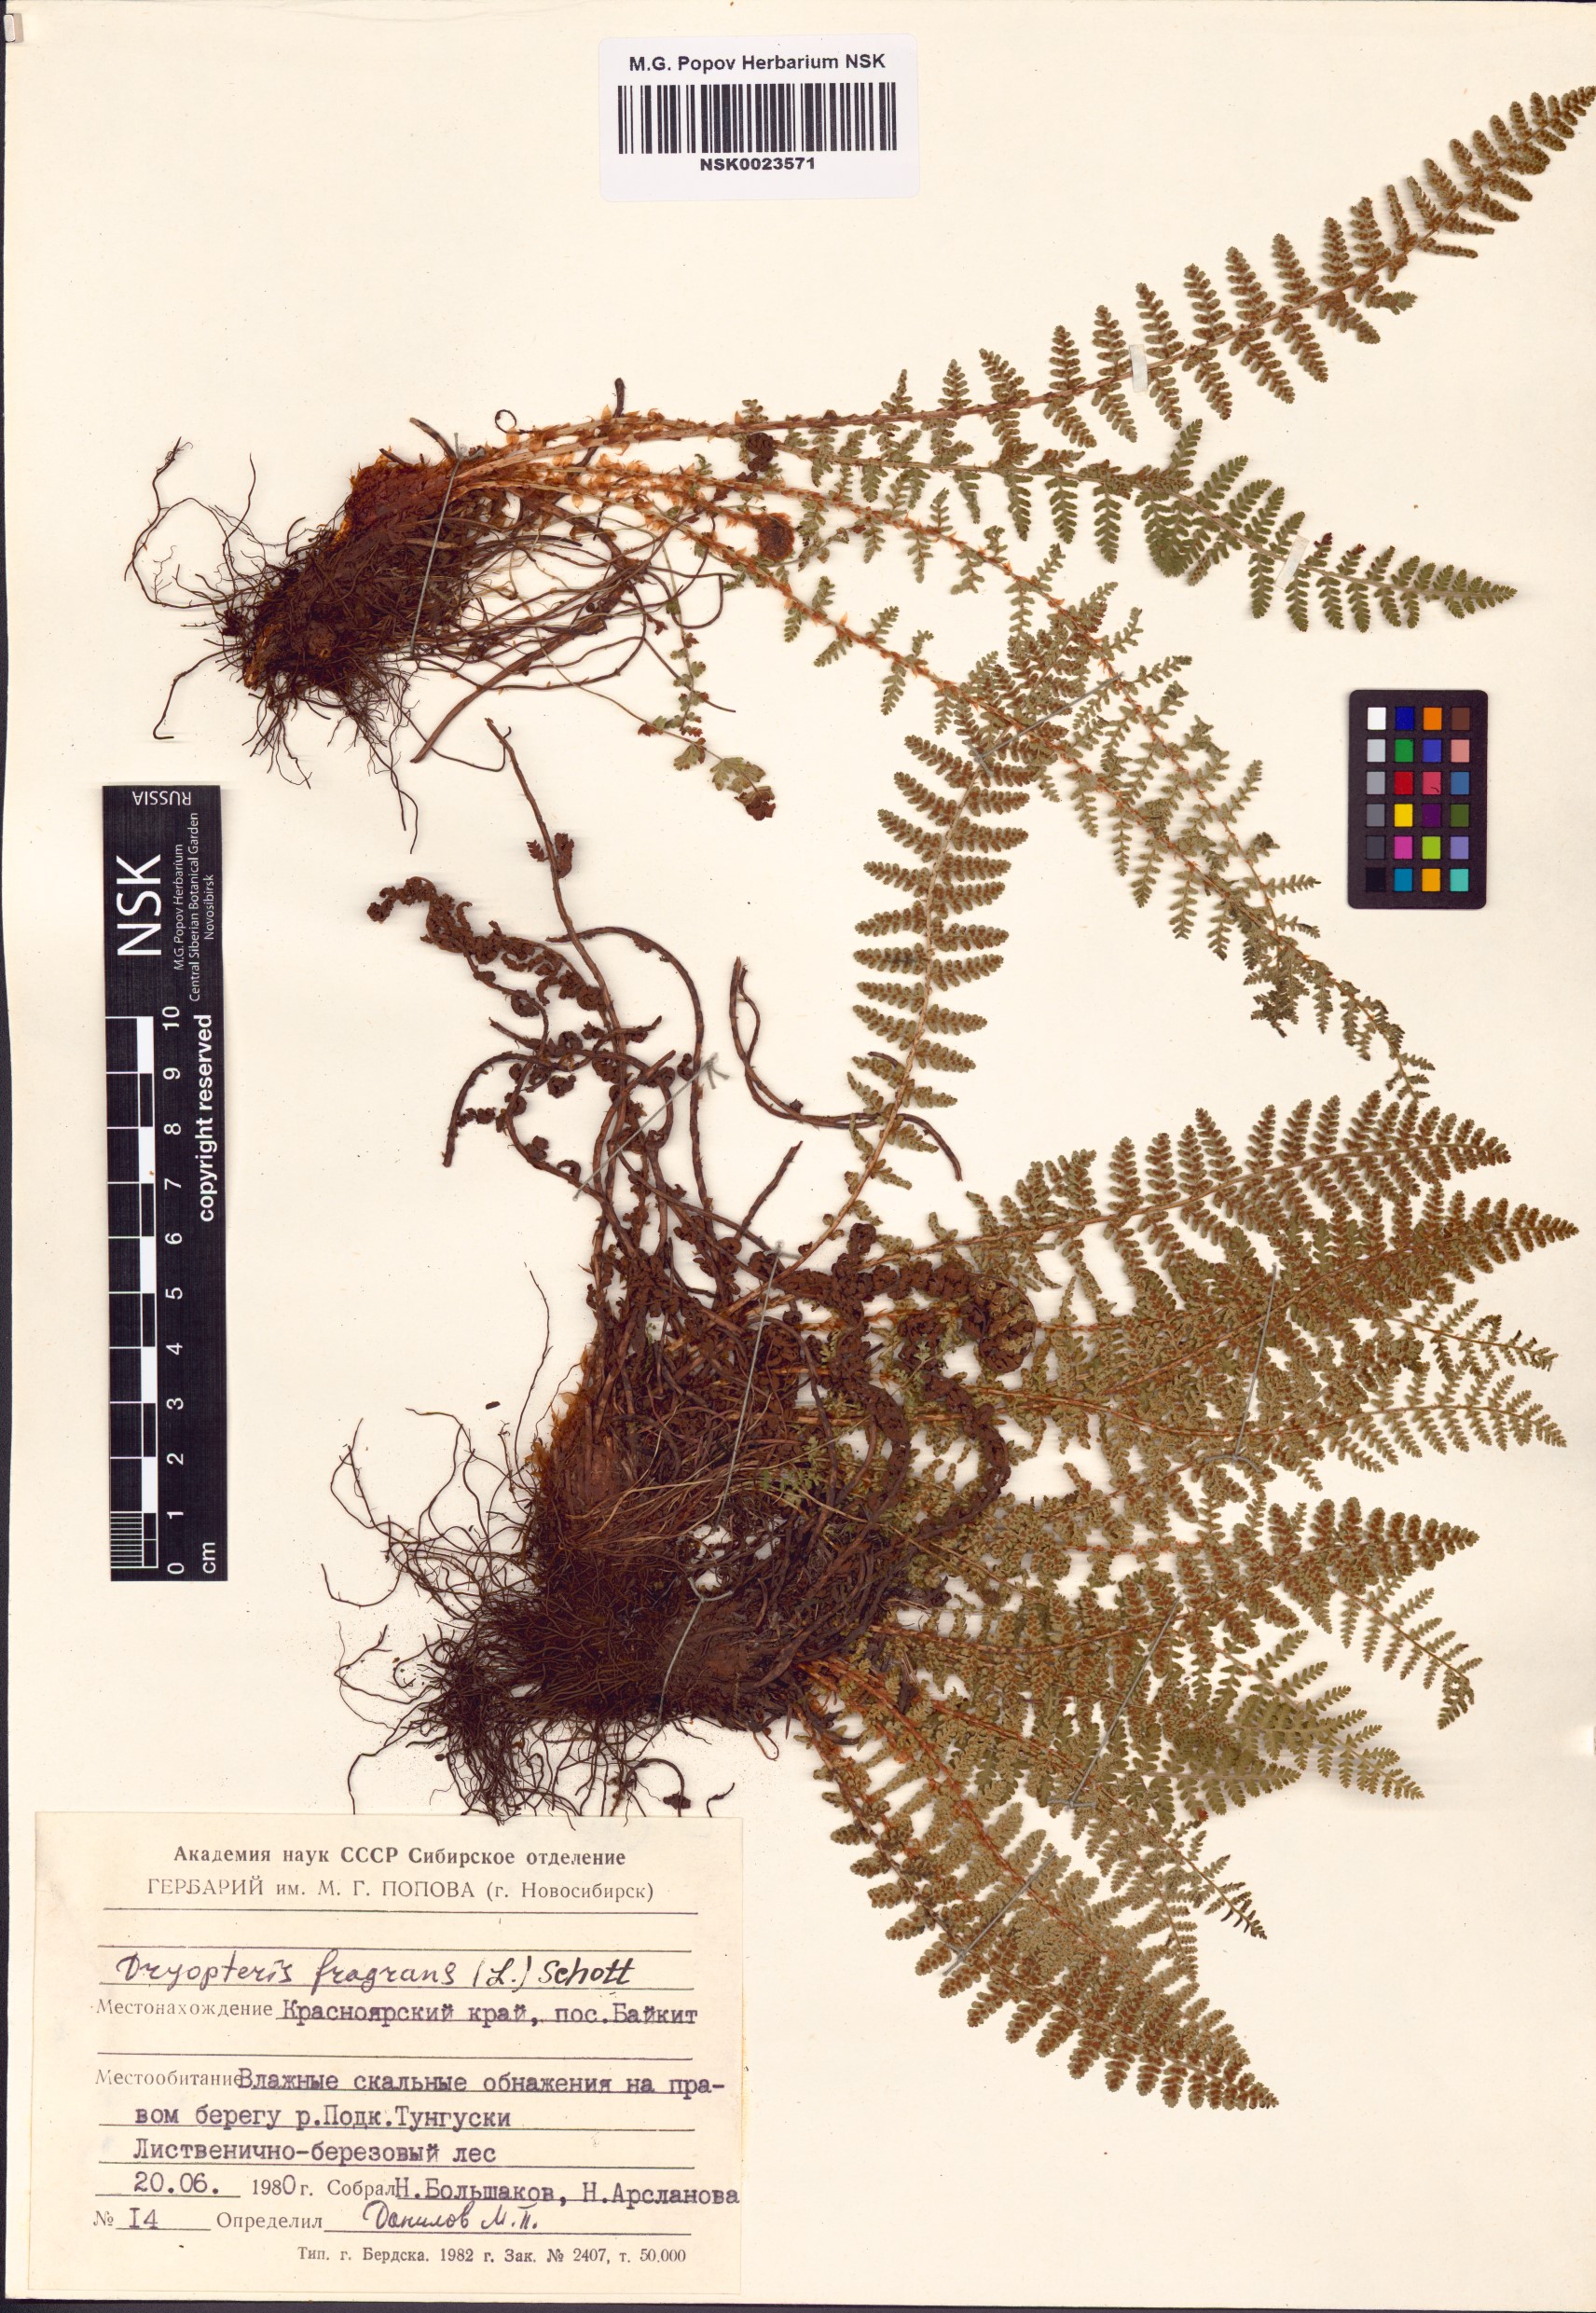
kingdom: Plantae
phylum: Tracheophyta
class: Polypodiopsida
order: Polypodiales
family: Dryopteridaceae
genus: Dryopteris
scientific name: Dryopteris fragrans
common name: Fragrant wood fern
